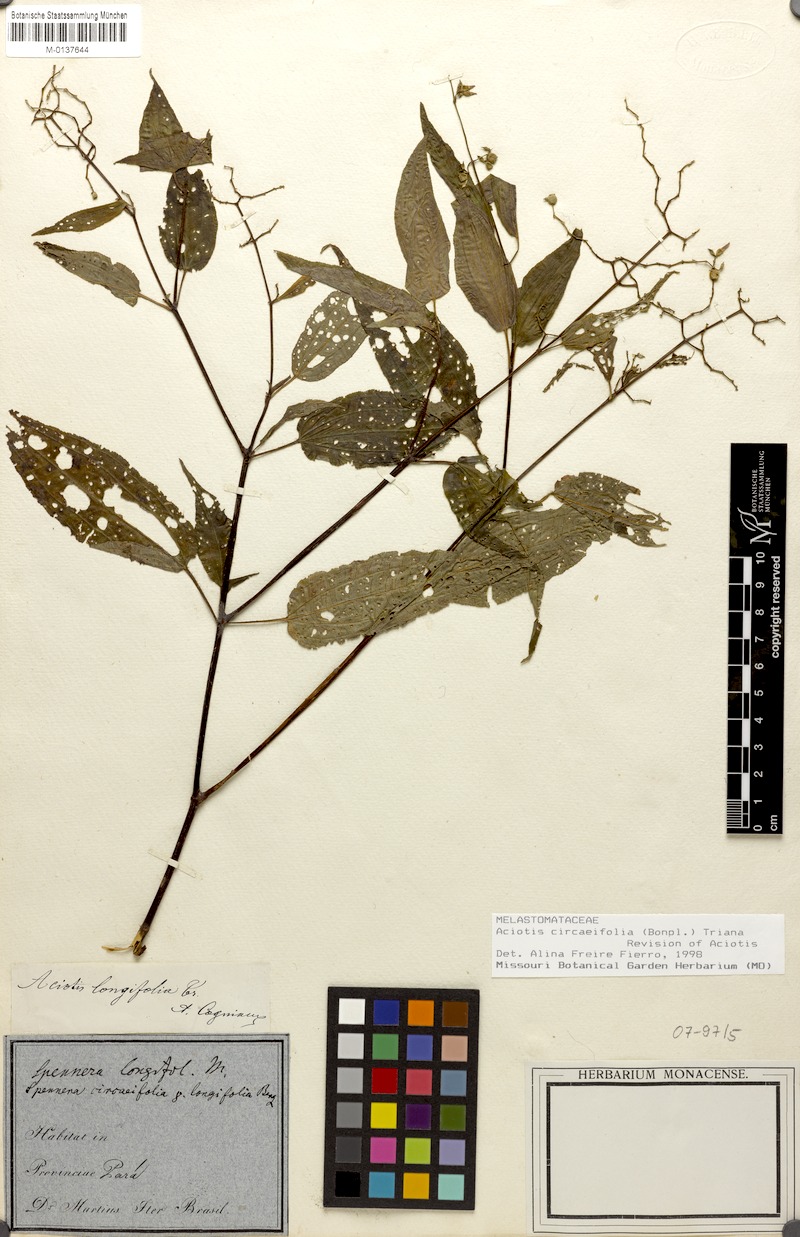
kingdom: Plantae
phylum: Tracheophyta
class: Magnoliopsida
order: Myrtales
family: Melastomataceae
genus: Aciotis
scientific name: Aciotis circaeifolia
